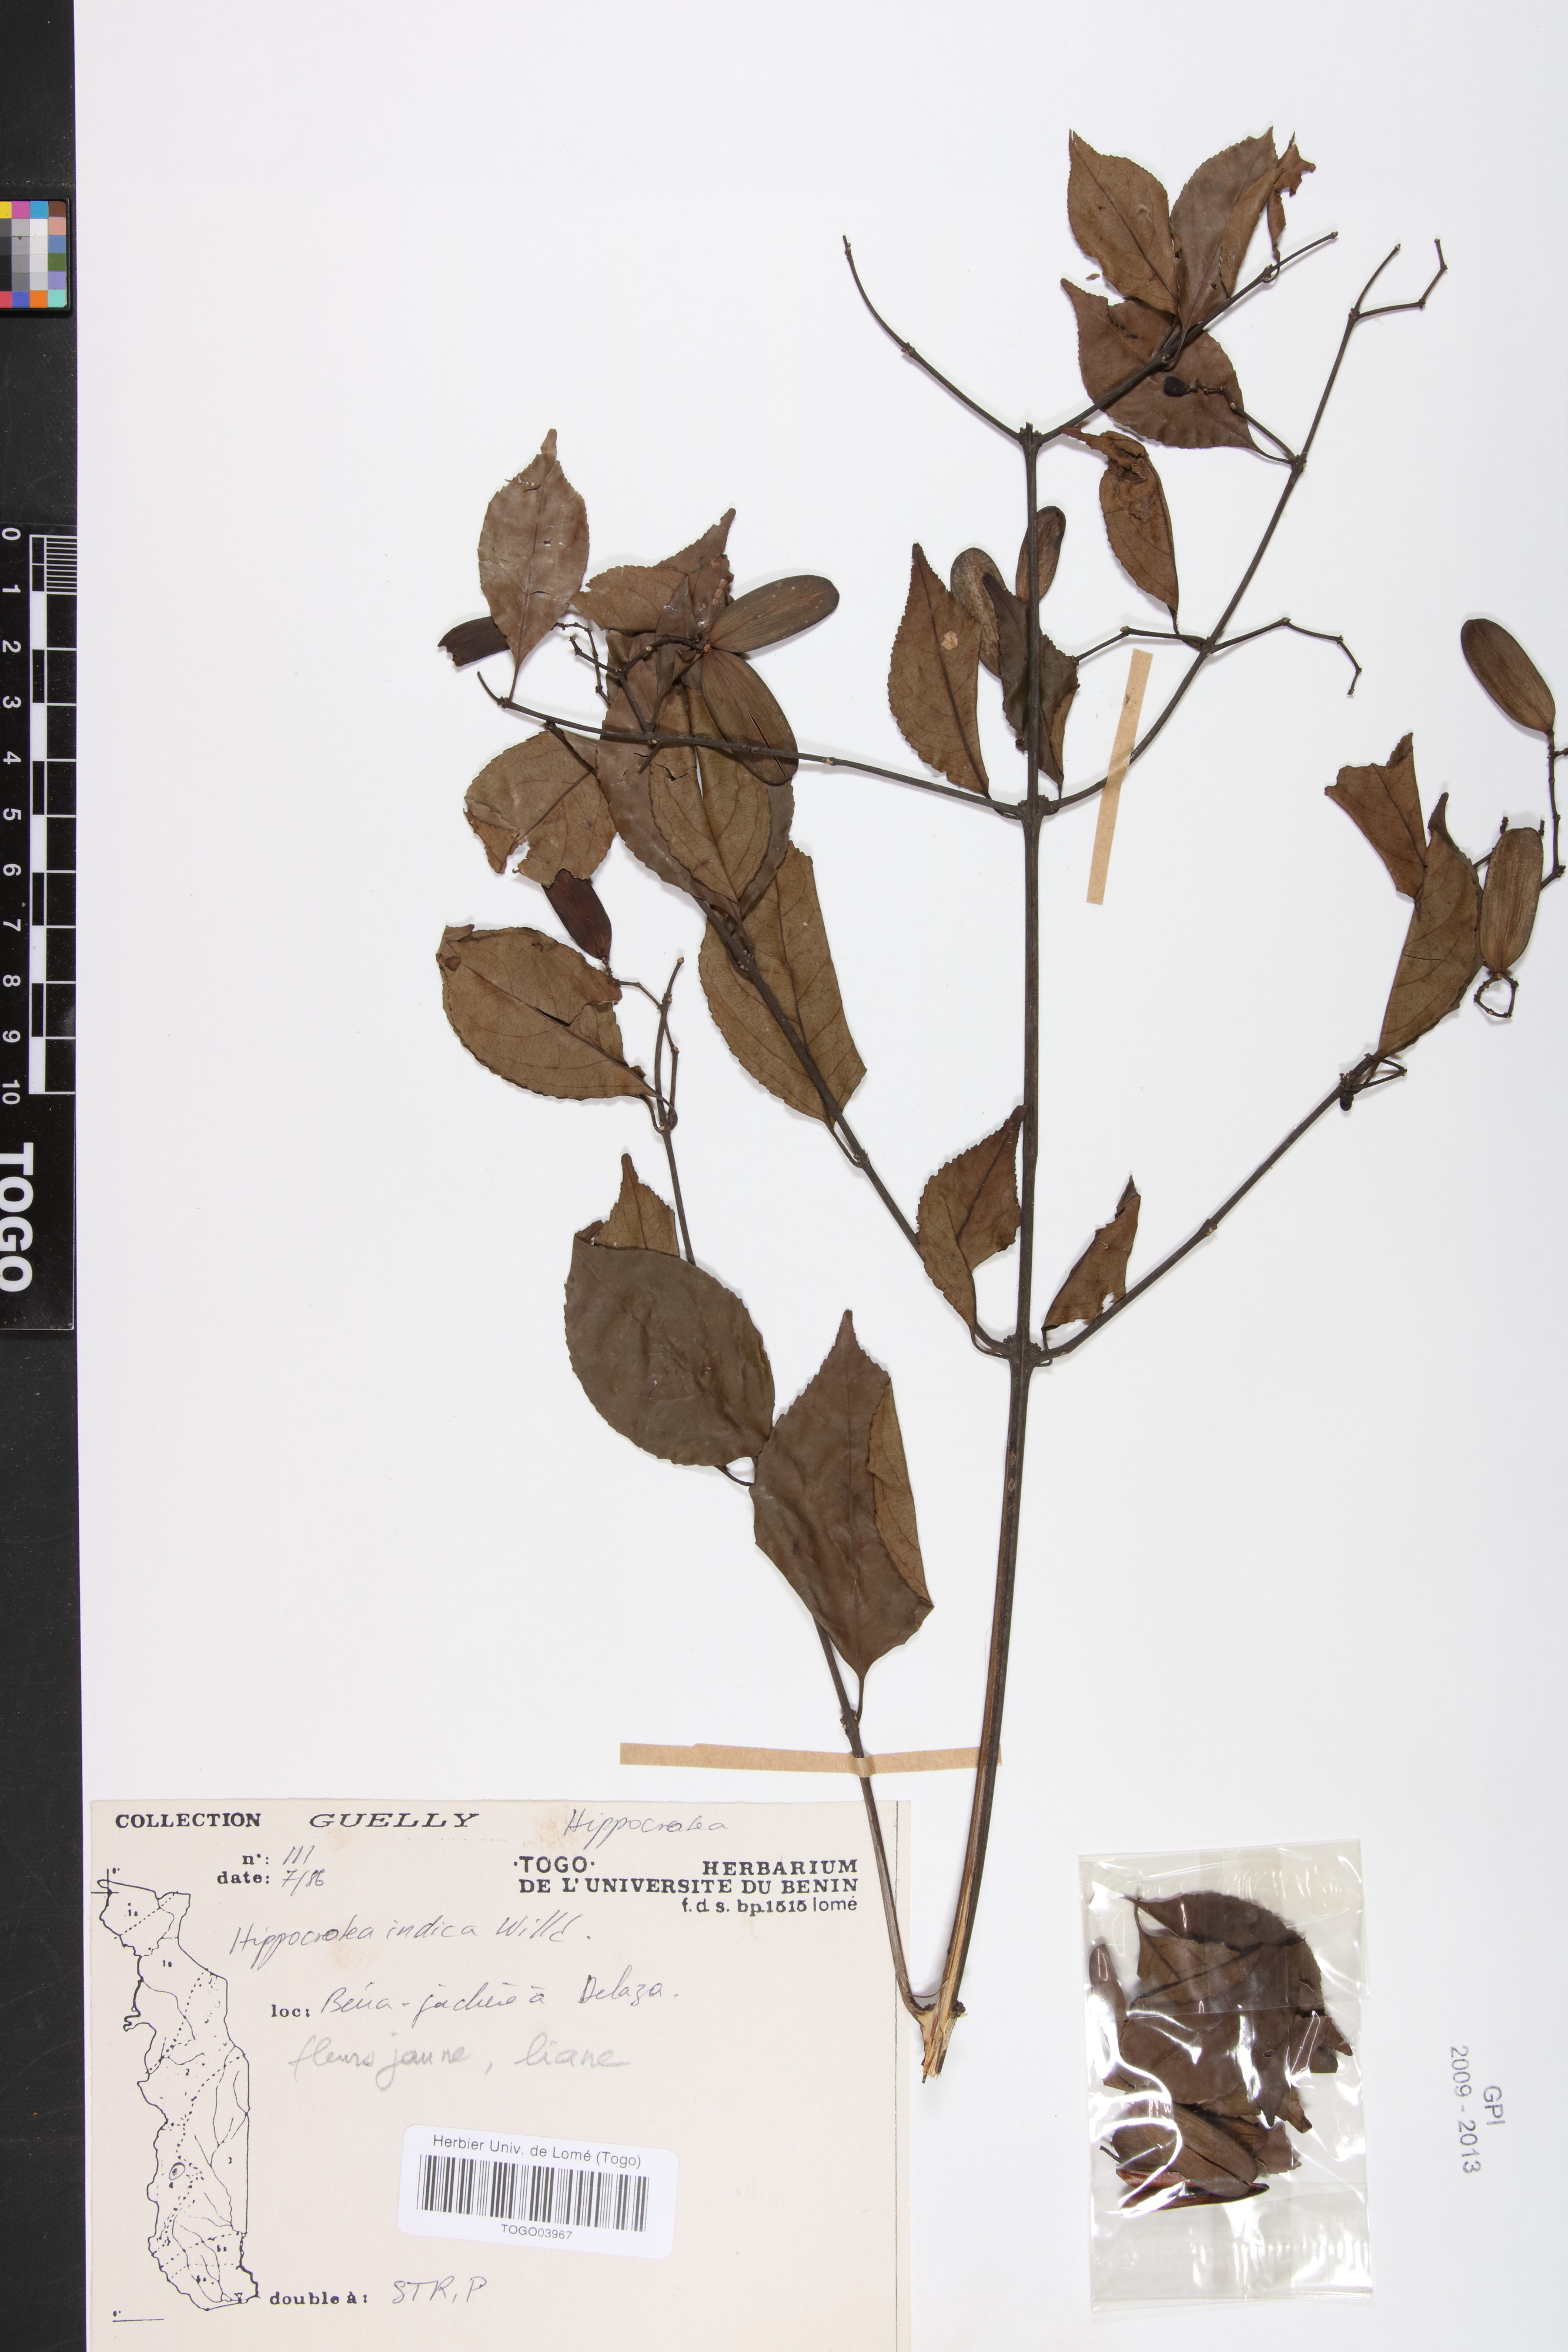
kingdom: Plantae
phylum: Tracheophyta
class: Magnoliopsida
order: Celastrales
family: Celastraceae
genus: Reissantia
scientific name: Reissantia indica
